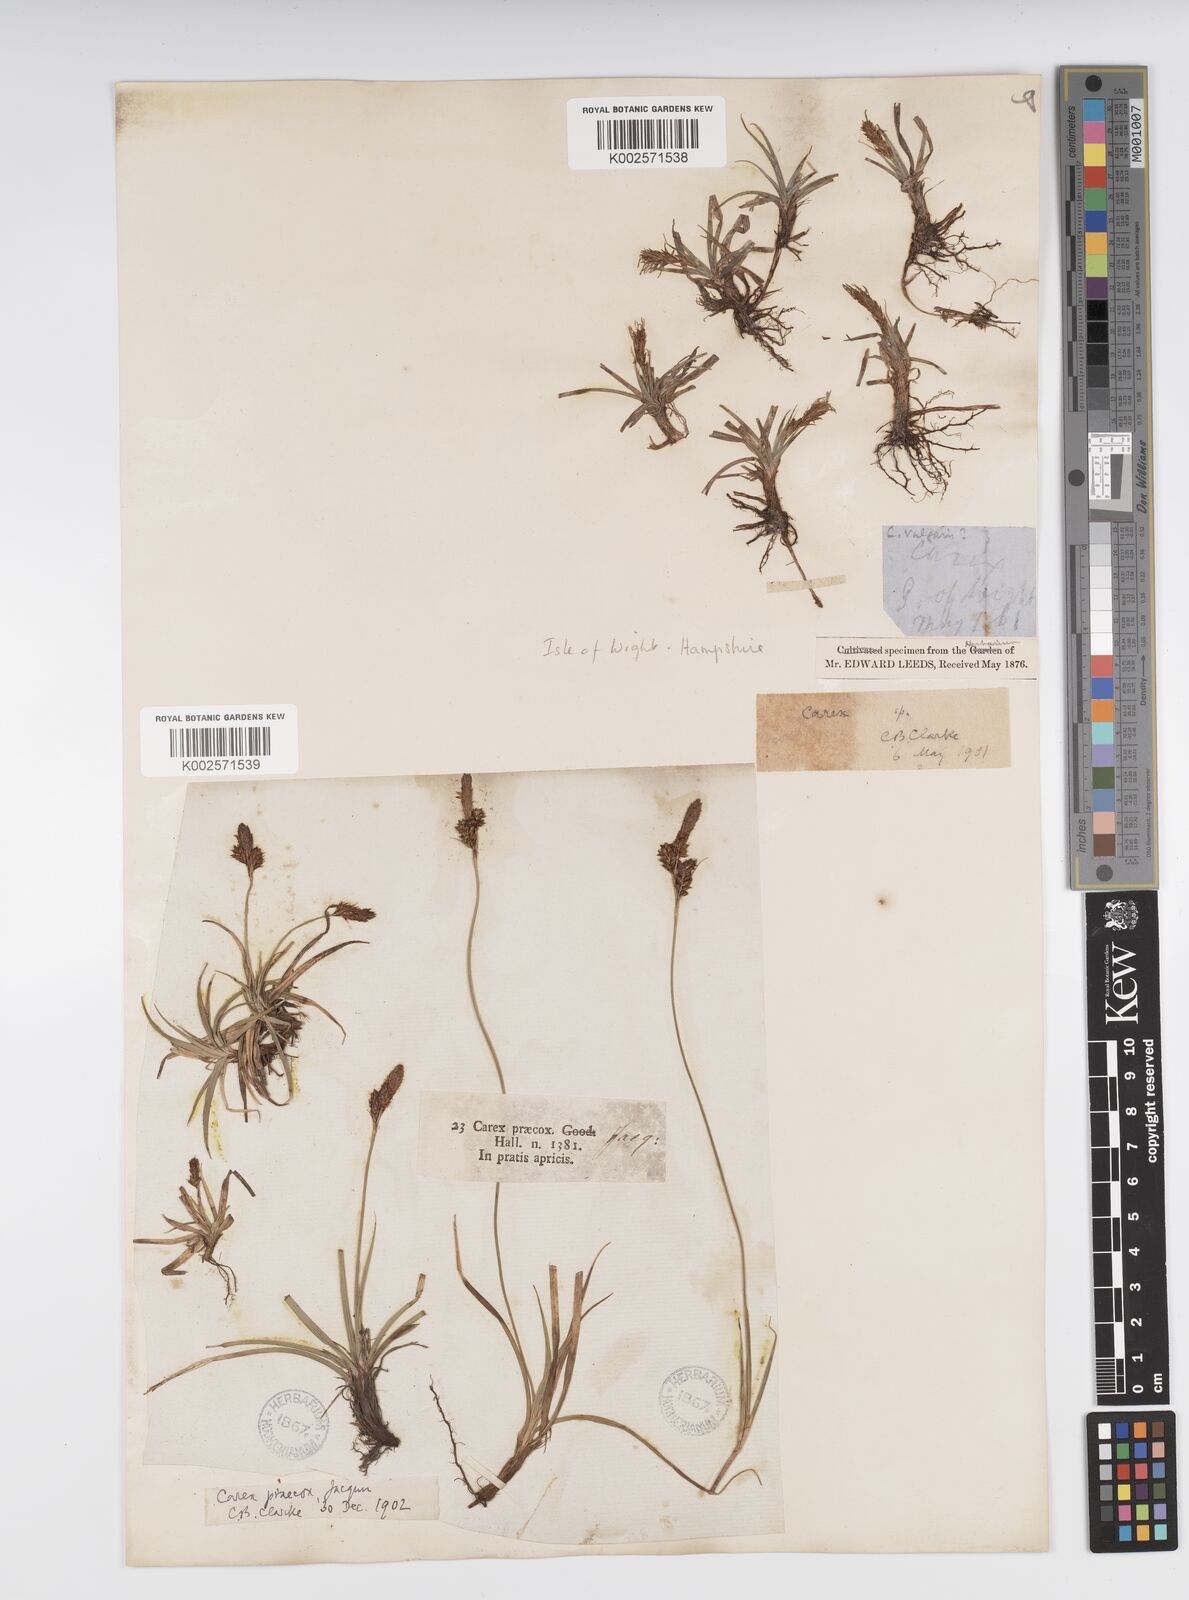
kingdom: Plantae
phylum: Tracheophyta
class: Liliopsida
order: Poales
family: Cyperaceae
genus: Carex
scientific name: Carex caryophyllea
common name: Spring sedge
